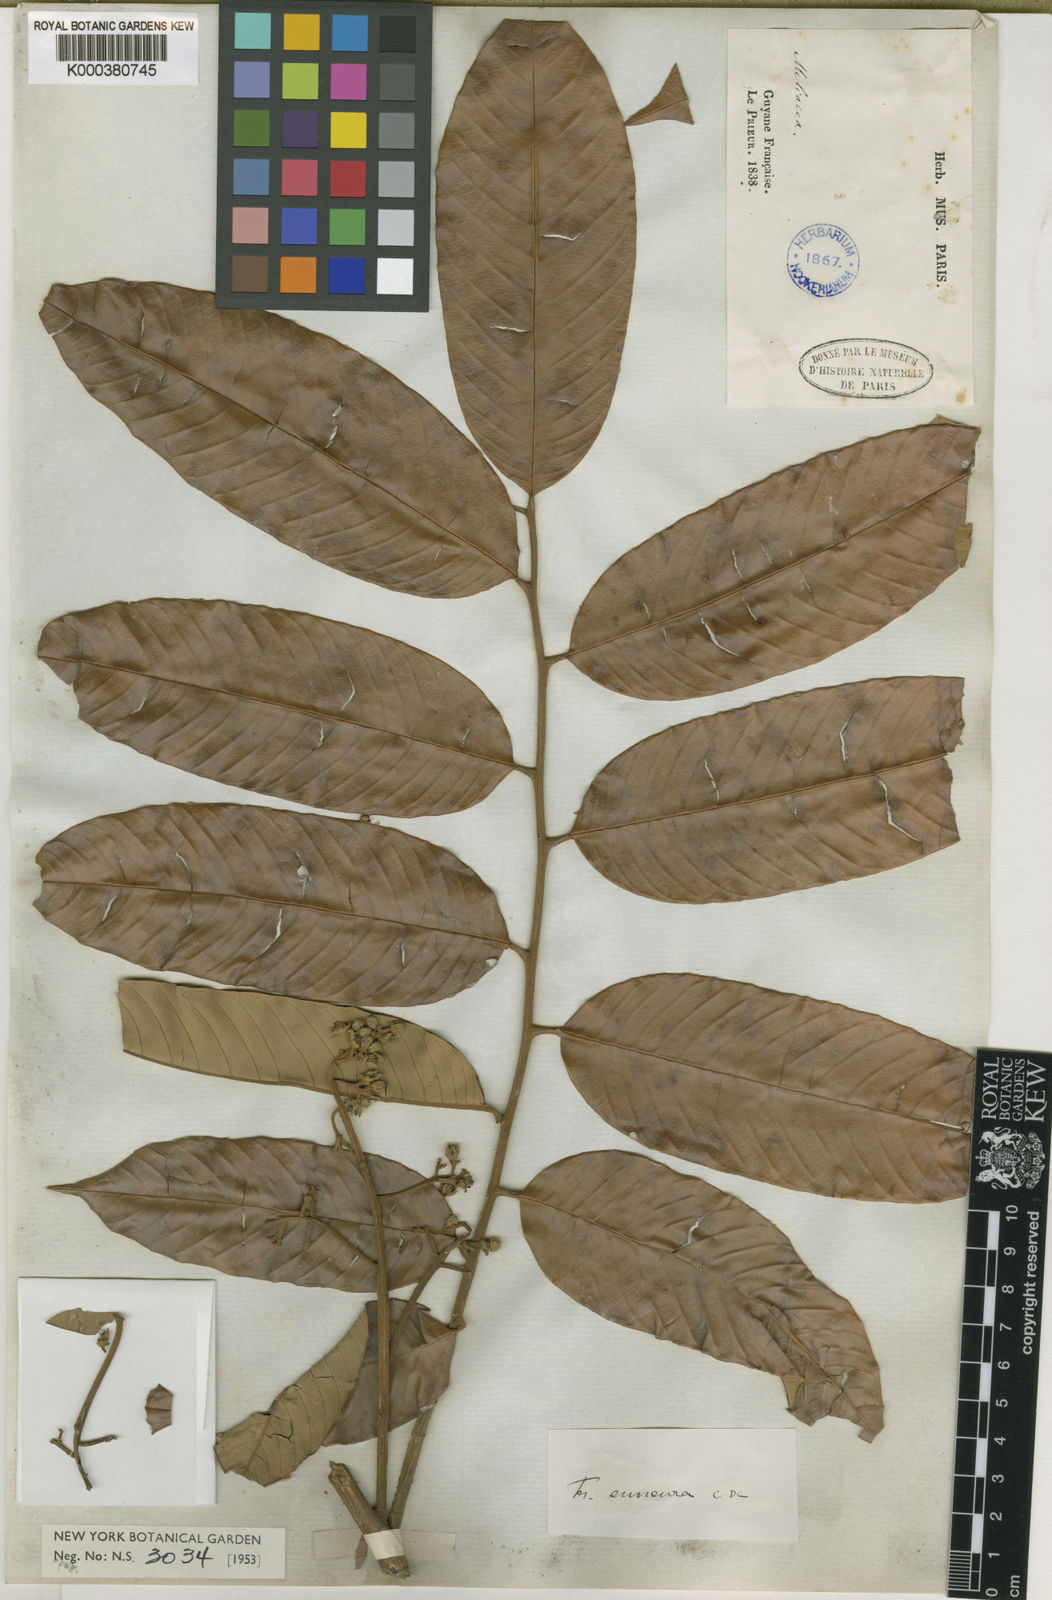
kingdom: Plantae
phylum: Tracheophyta
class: Magnoliopsida
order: Sapindales
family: Meliaceae
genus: Trichilia
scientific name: Trichilia euneura
